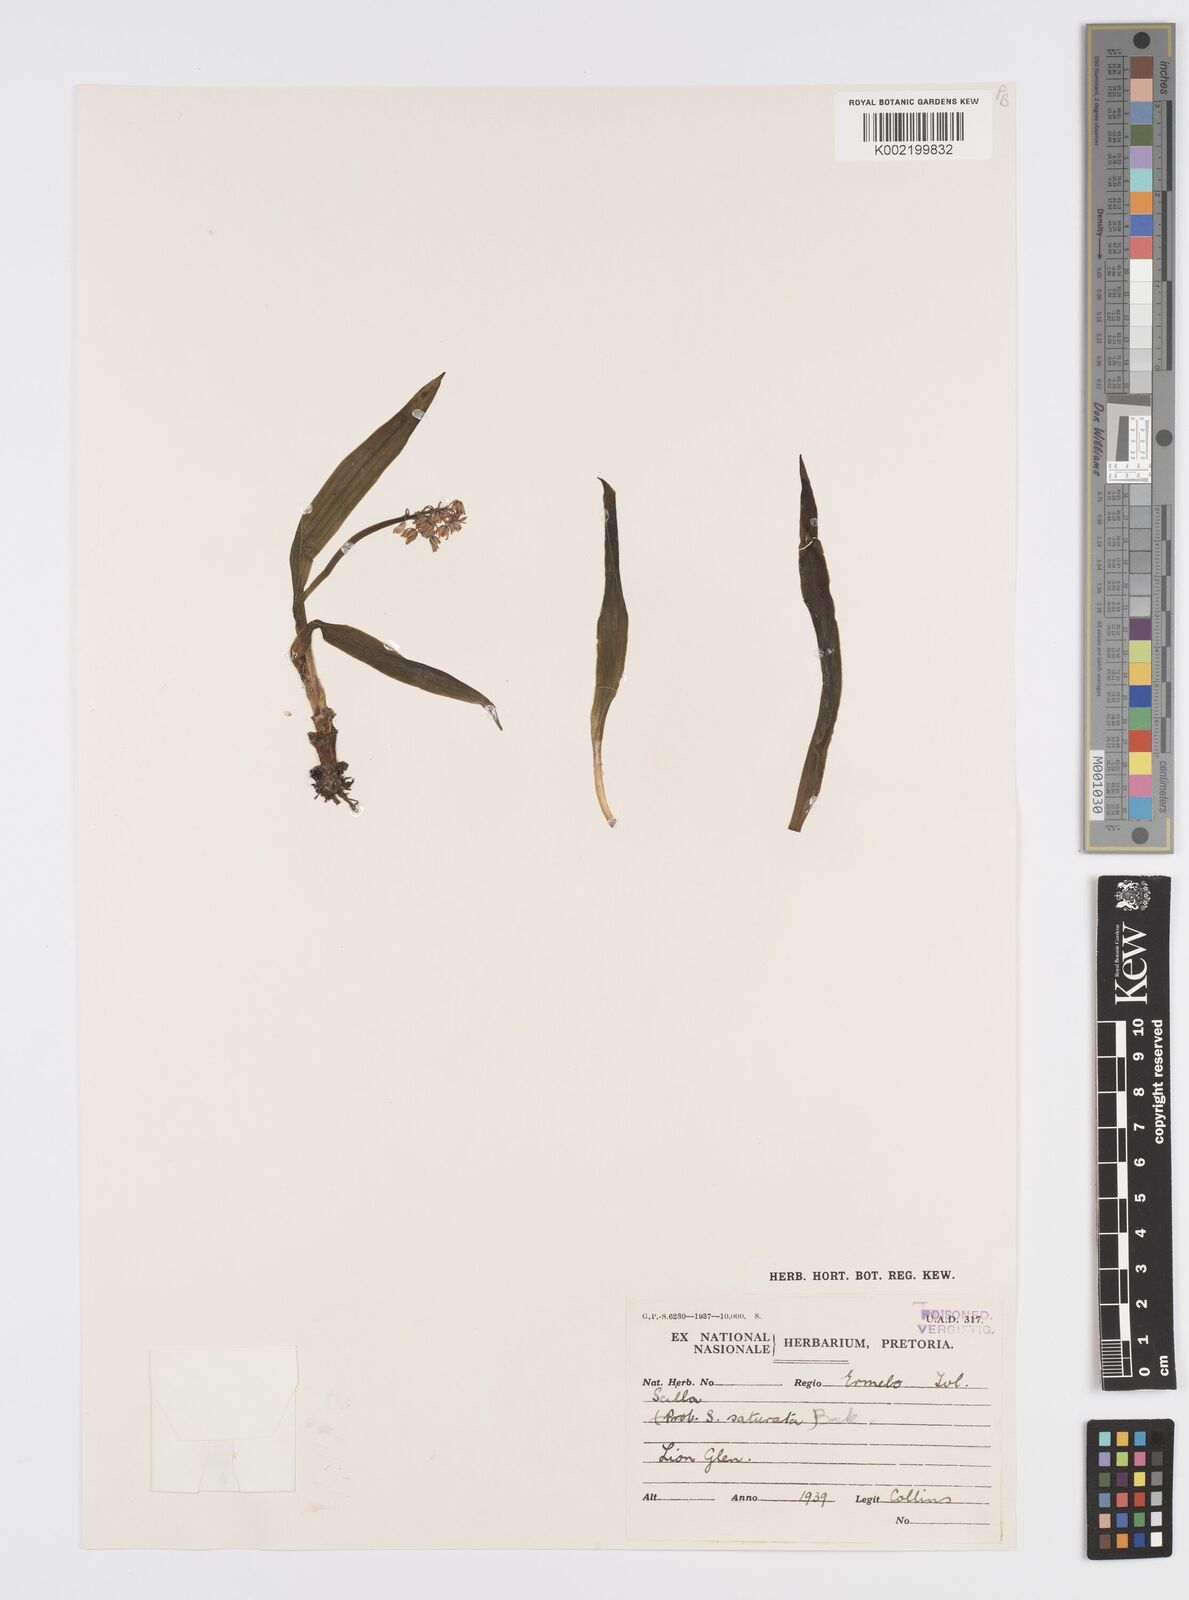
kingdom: Plantae
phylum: Tracheophyta
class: Liliopsida
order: Asparagales
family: Asparagaceae
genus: Ledebouria
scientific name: Ledebouria cooperi
